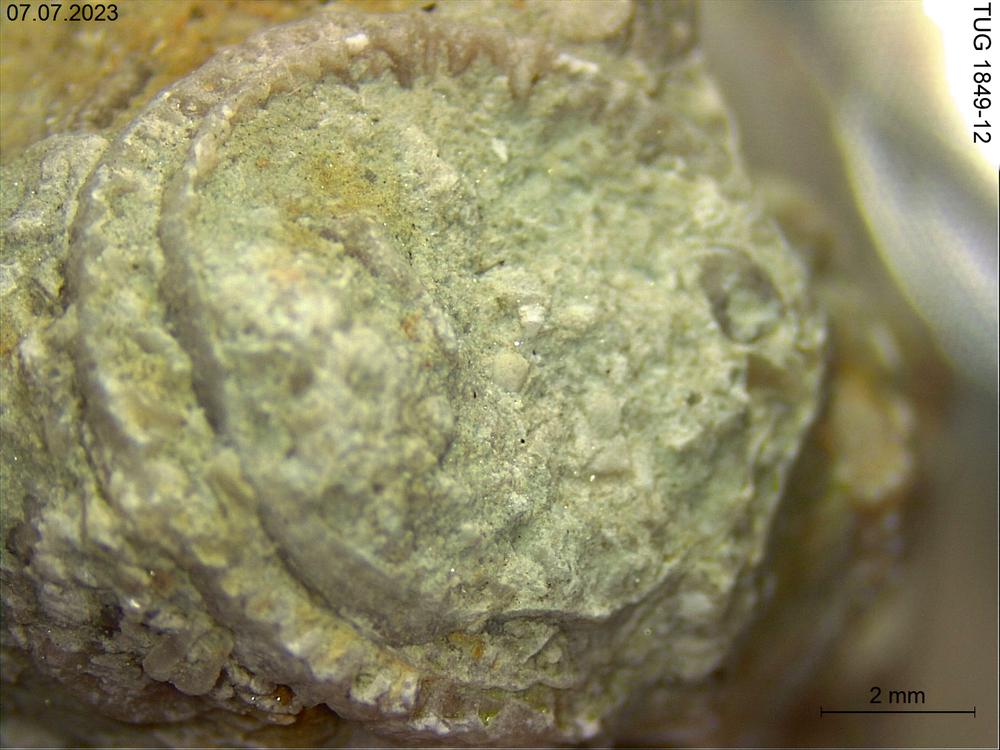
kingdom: Animalia
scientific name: Animalia
